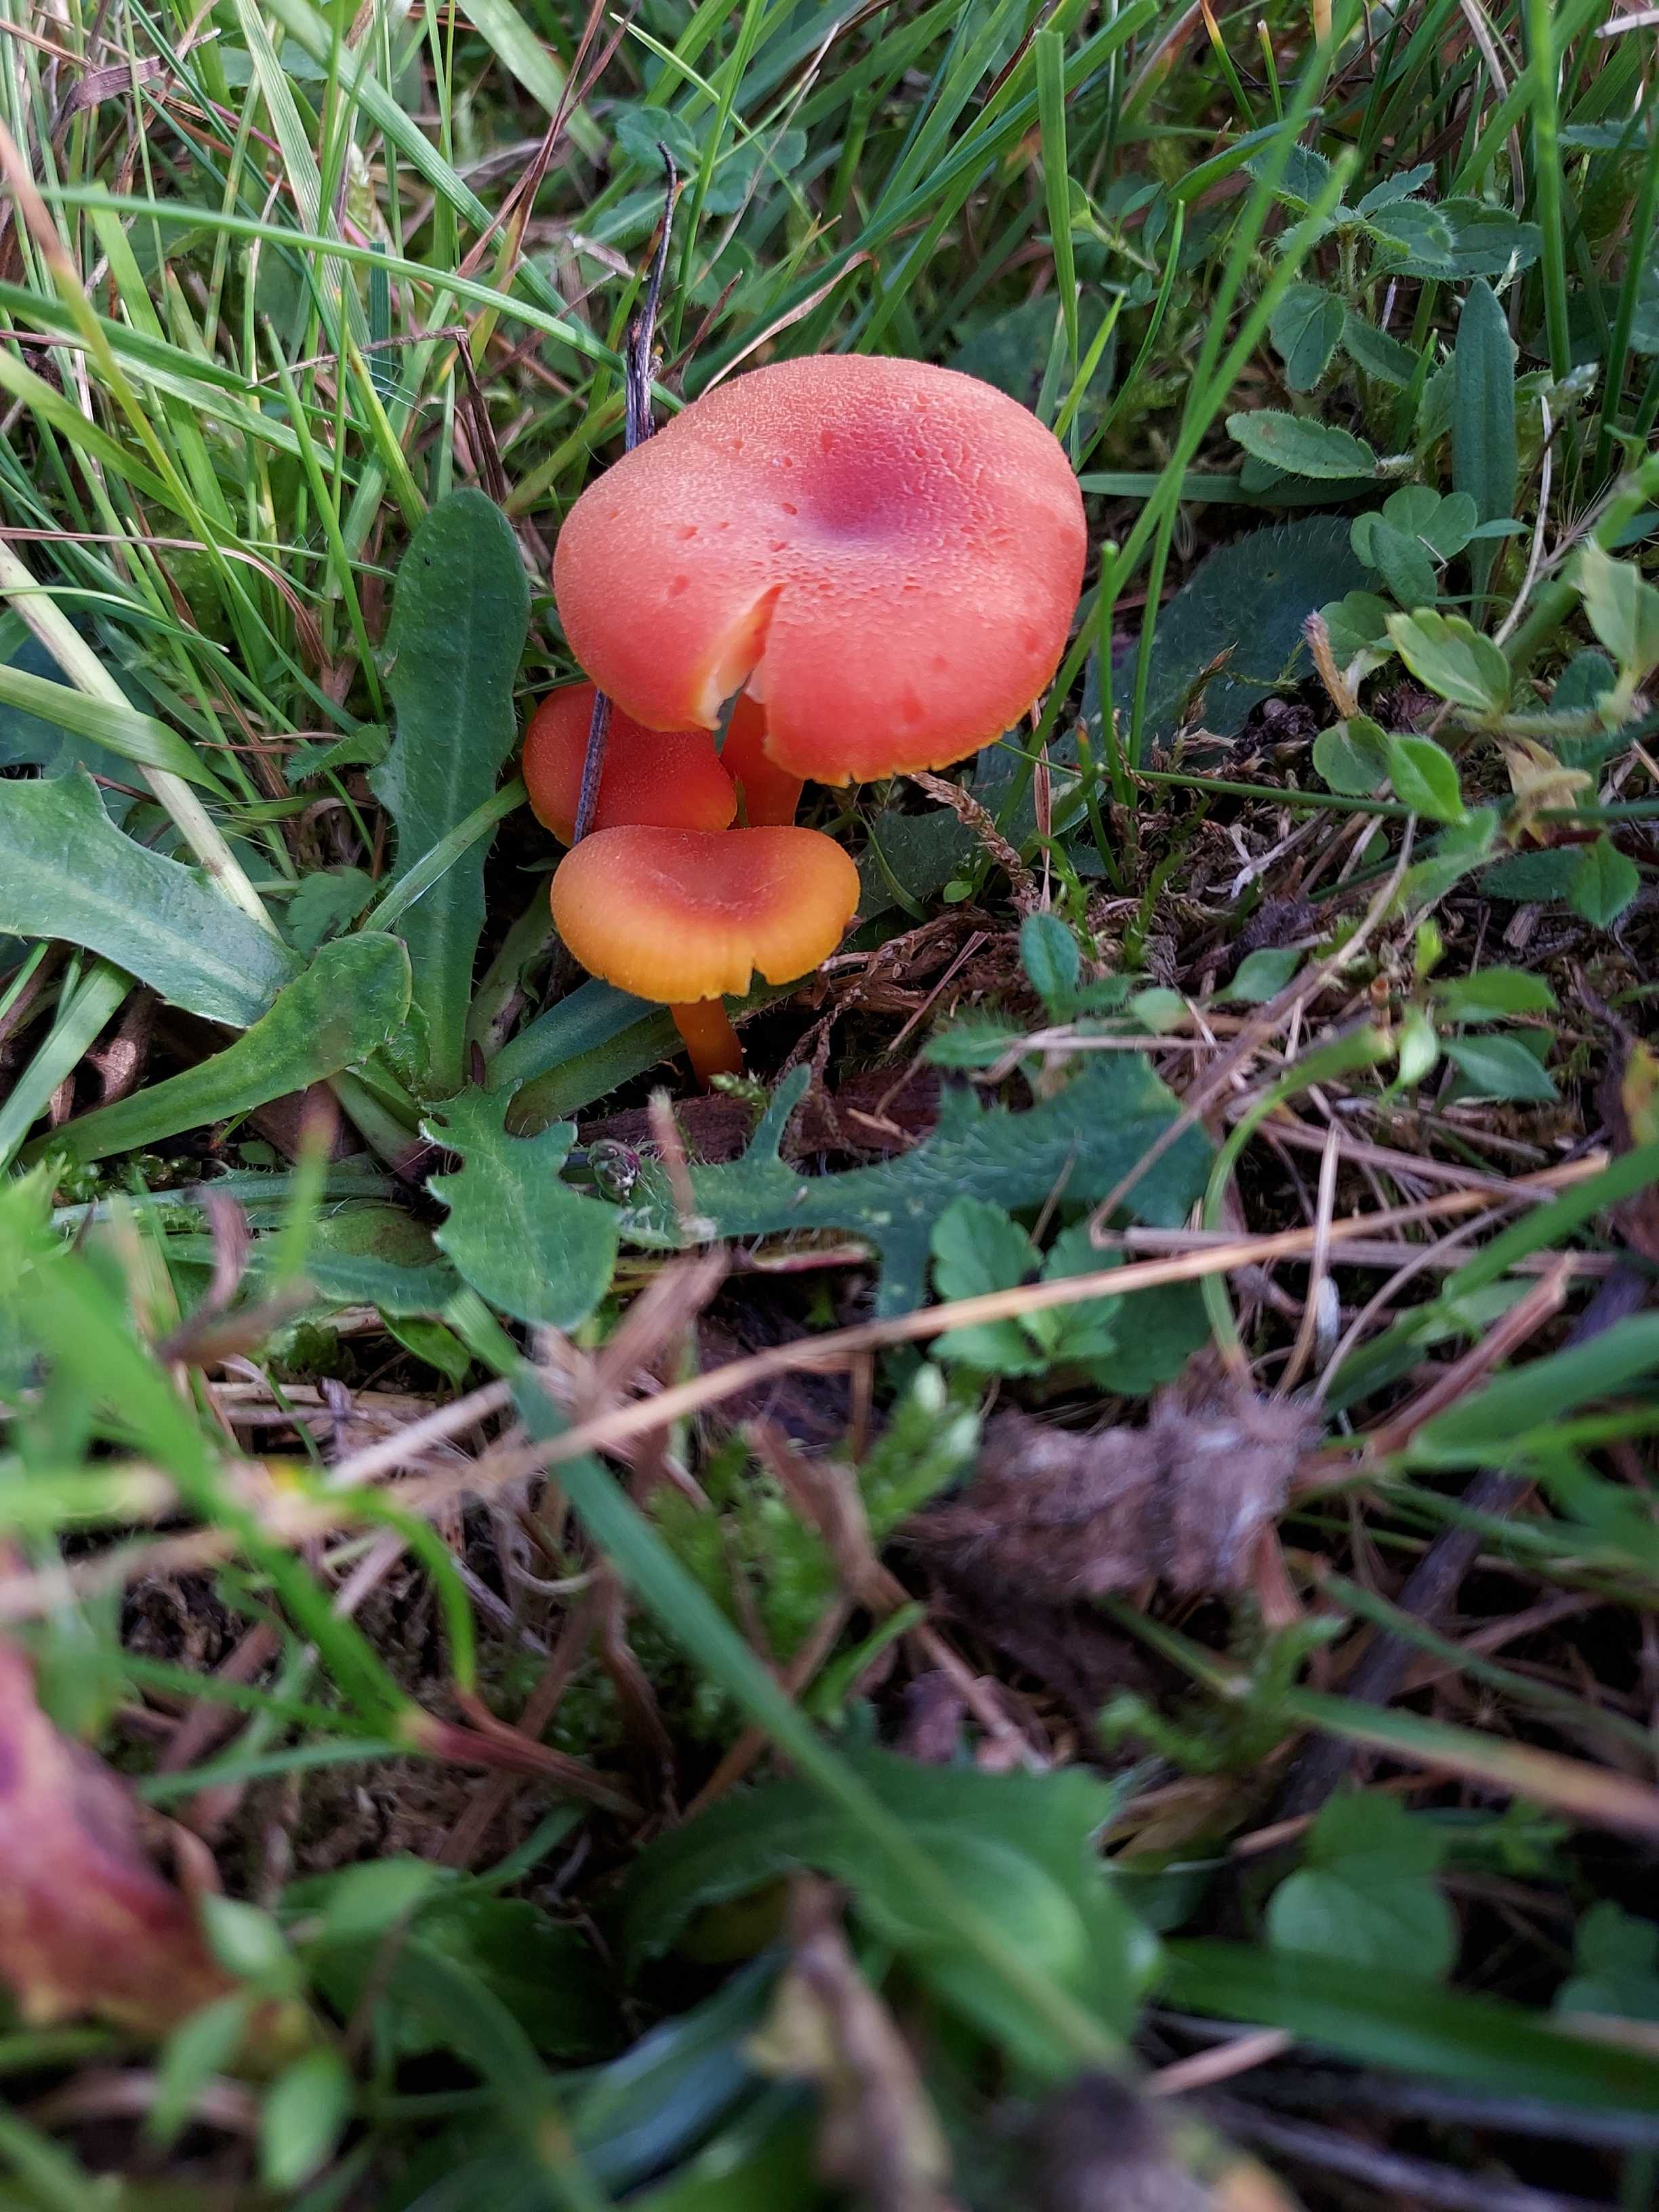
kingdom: Fungi
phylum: Basidiomycota
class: Agaricomycetes
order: Agaricales
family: Hygrophoraceae
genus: Hygrocybe
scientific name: Hygrocybe miniata
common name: mønje-vokshat
